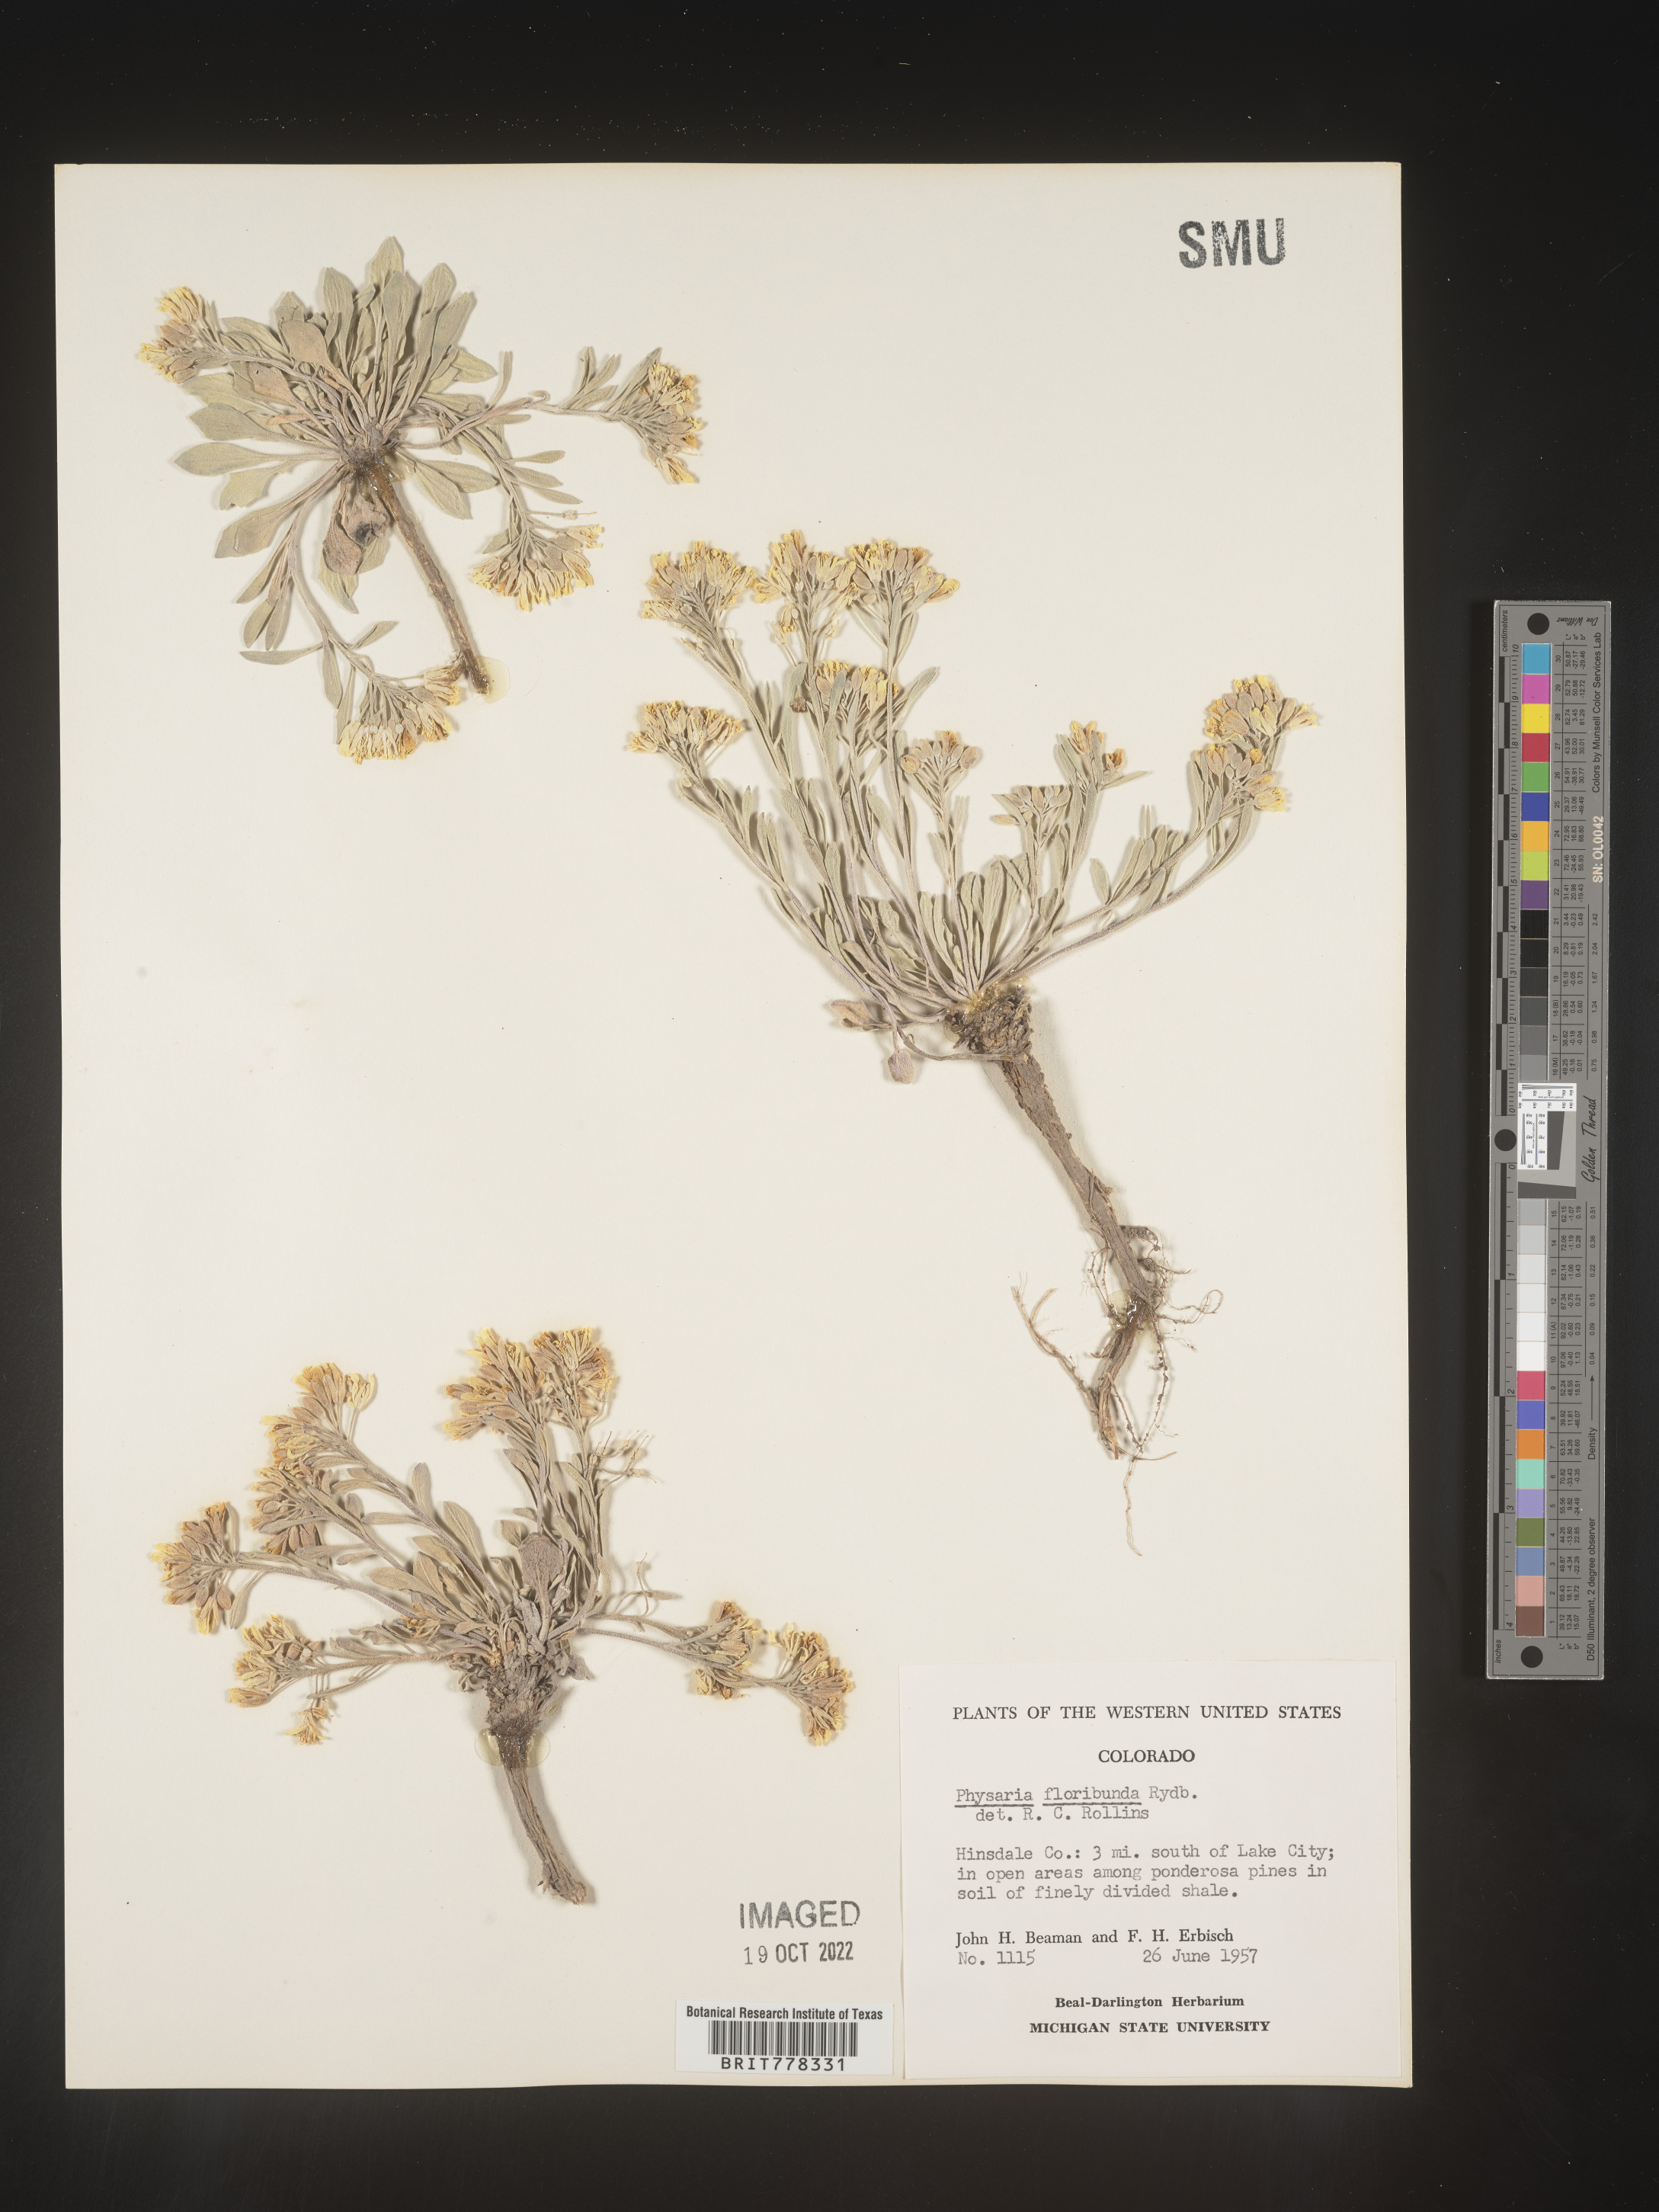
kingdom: Plantae
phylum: Tracheophyta
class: Magnoliopsida
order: Brassicales
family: Brassicaceae
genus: Physaria
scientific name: Physaria
